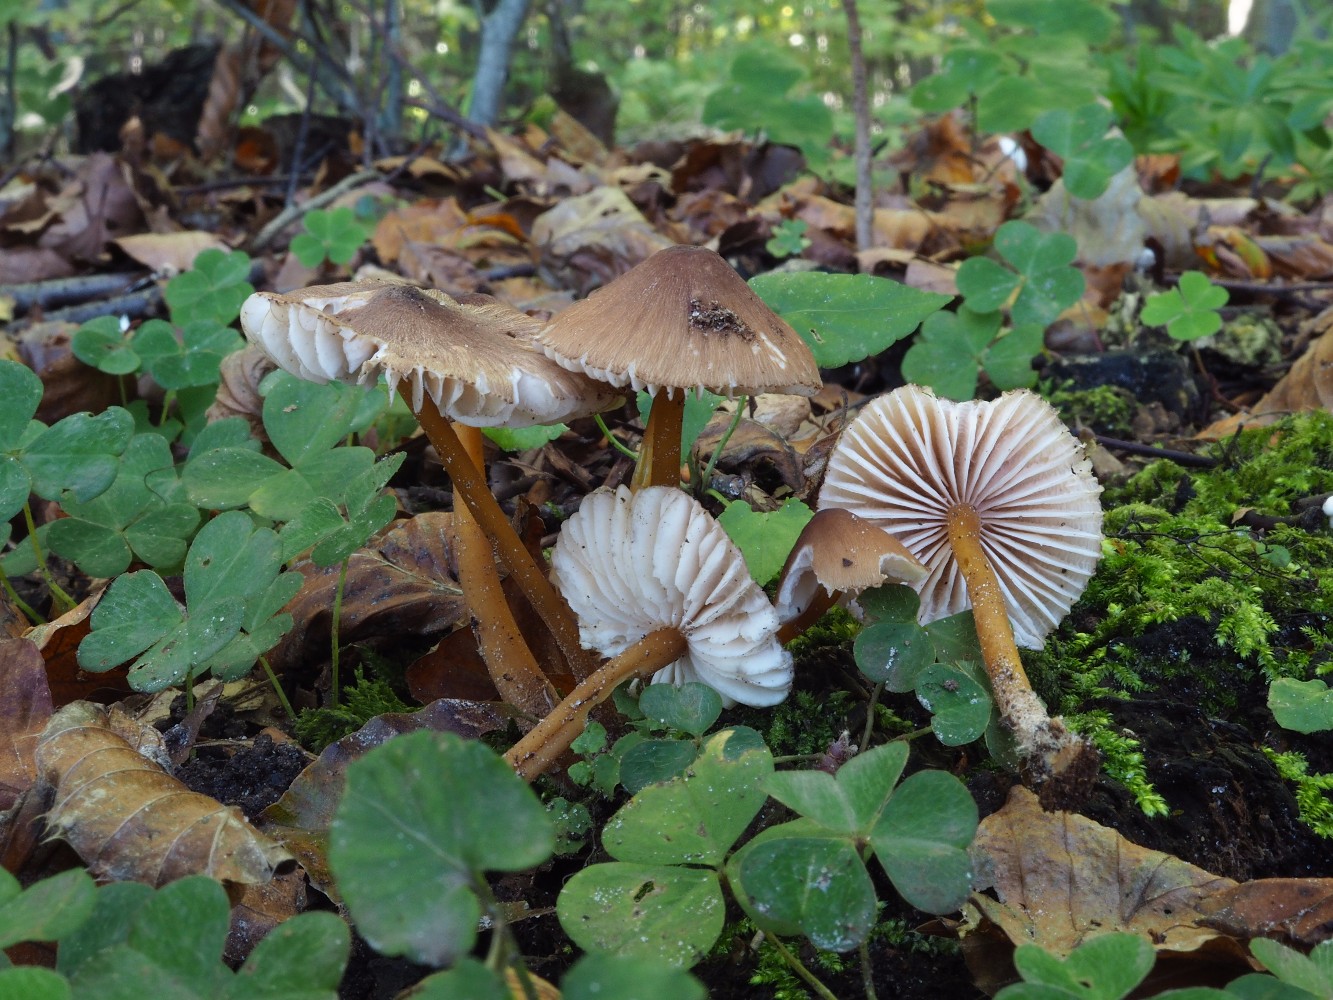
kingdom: Fungi
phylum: Basidiomycota
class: Agaricomycetes
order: Agaricales
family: Mycenaceae
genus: Mycena
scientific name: Mycena renati
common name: smuk huesvamp
